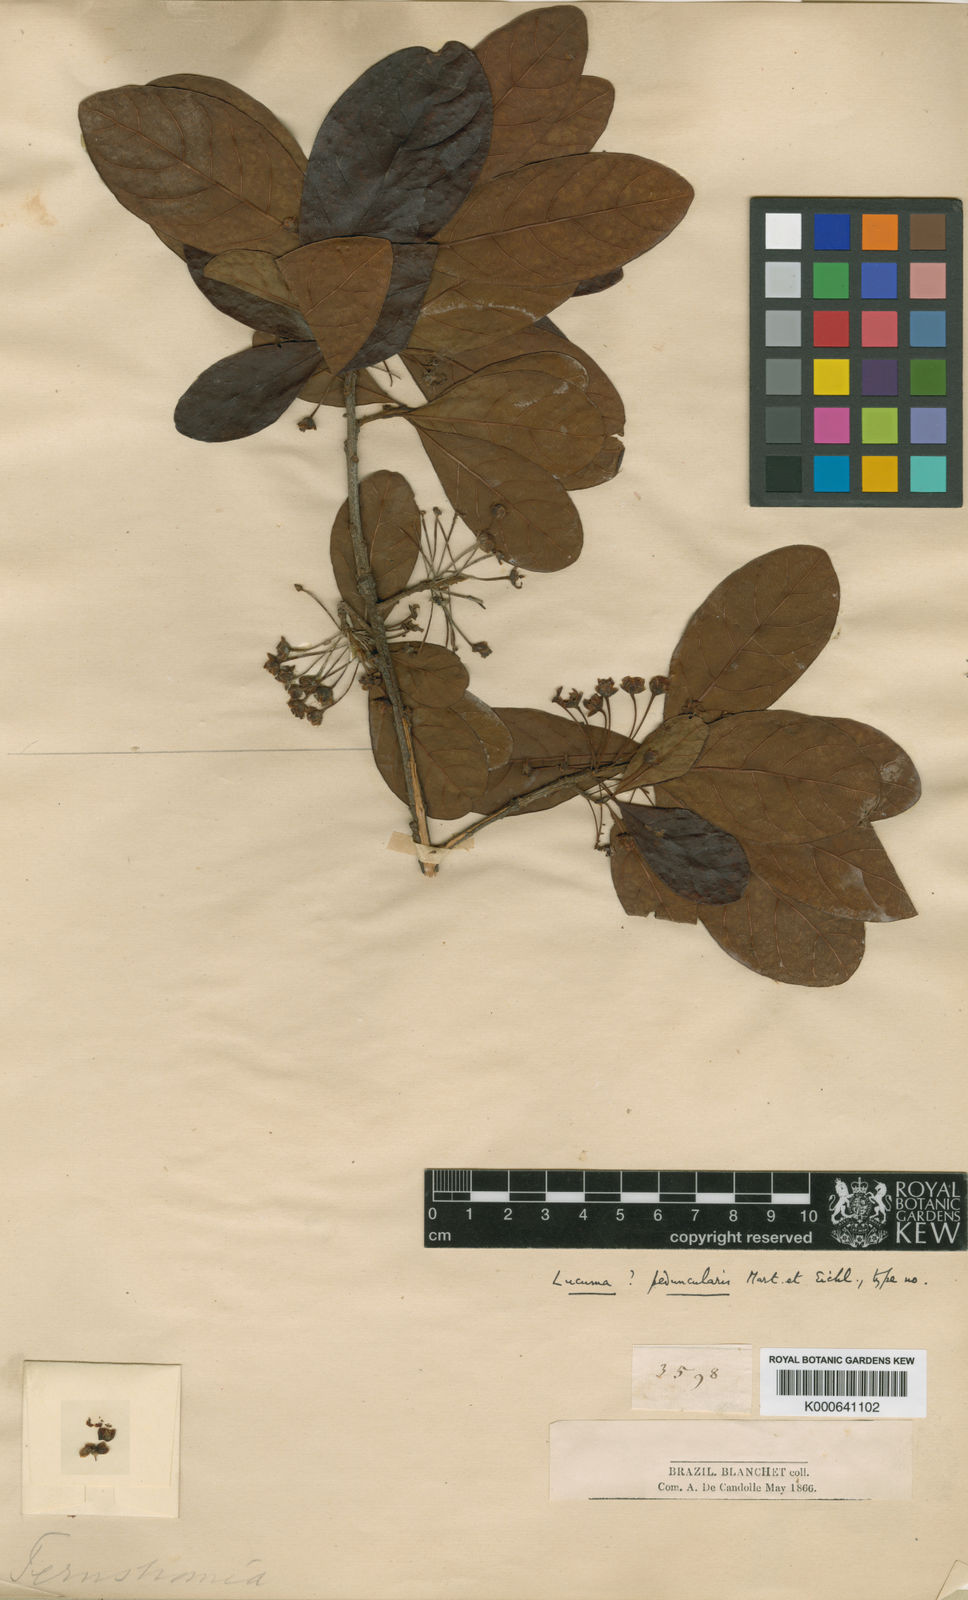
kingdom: Plantae
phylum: Tracheophyta
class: Magnoliopsida
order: Ericales
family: Sapotaceae
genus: Pouteria
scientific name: Pouteria gardneri
